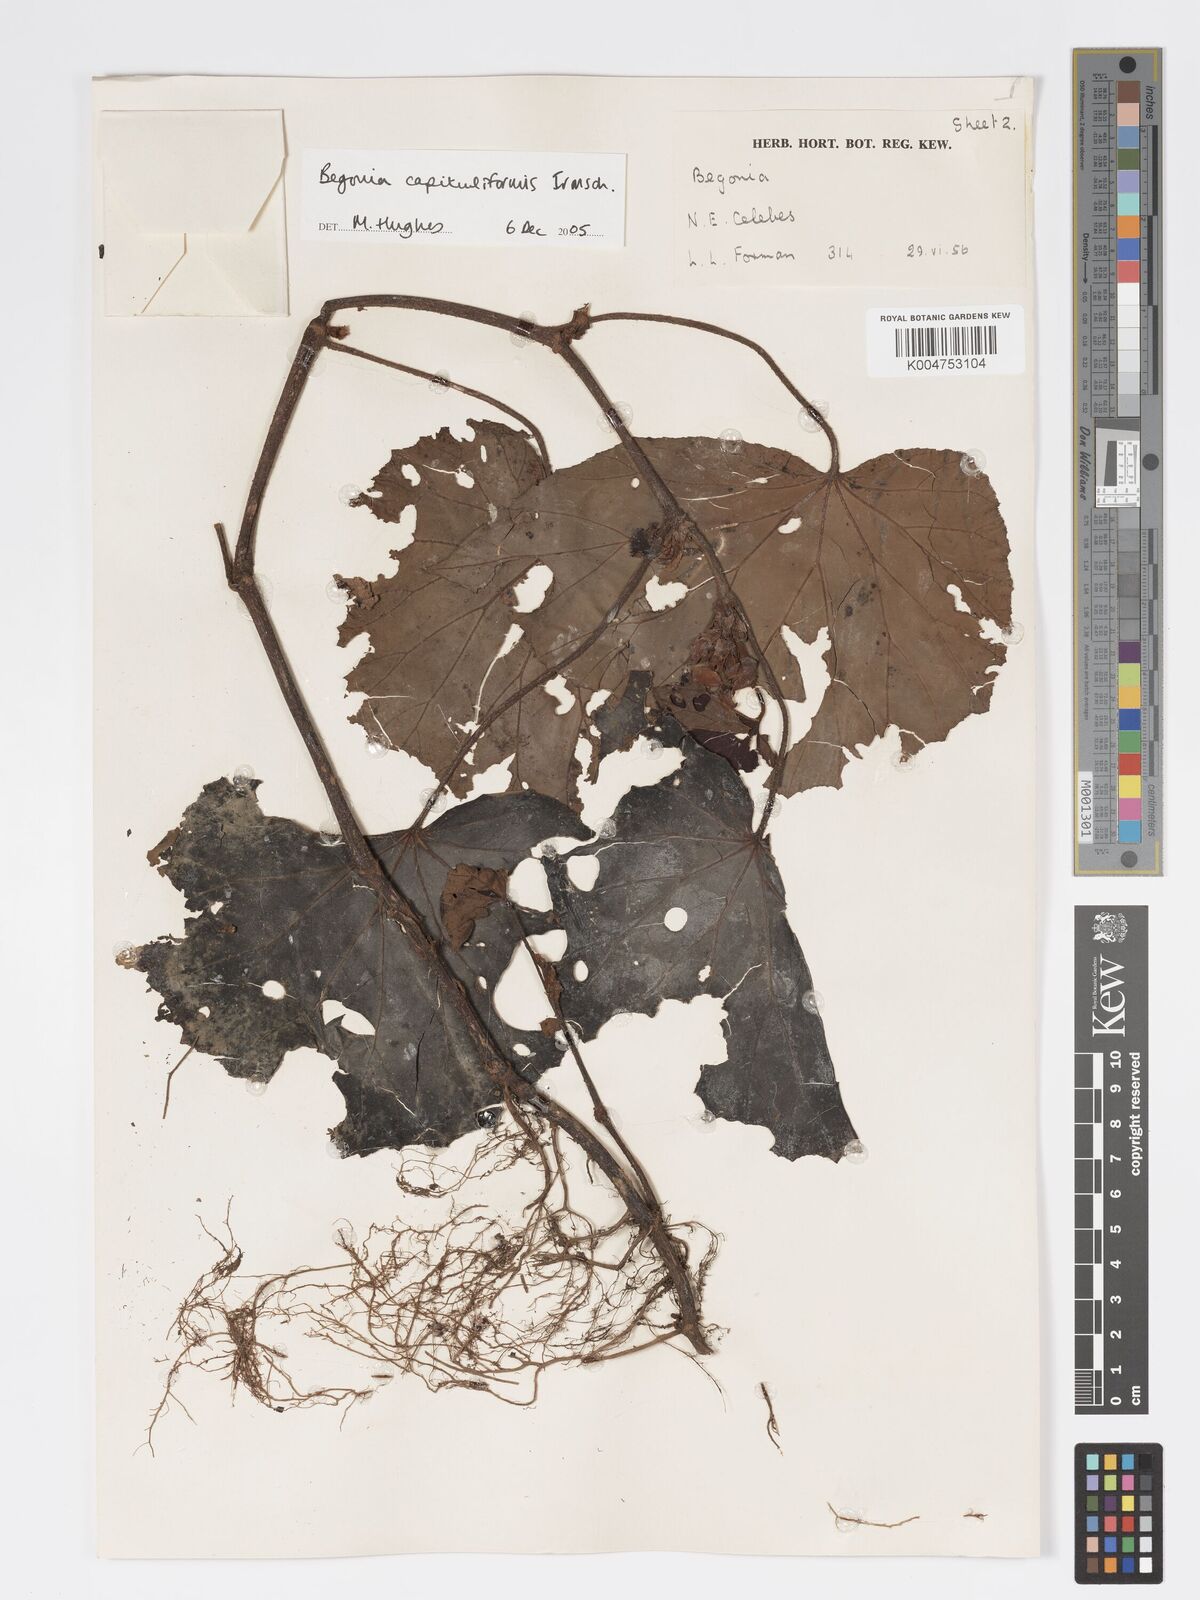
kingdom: Plantae
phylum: Tracheophyta
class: Magnoliopsida
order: Cucurbitales
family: Begoniaceae
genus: Begonia
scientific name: Begonia capituliformis
